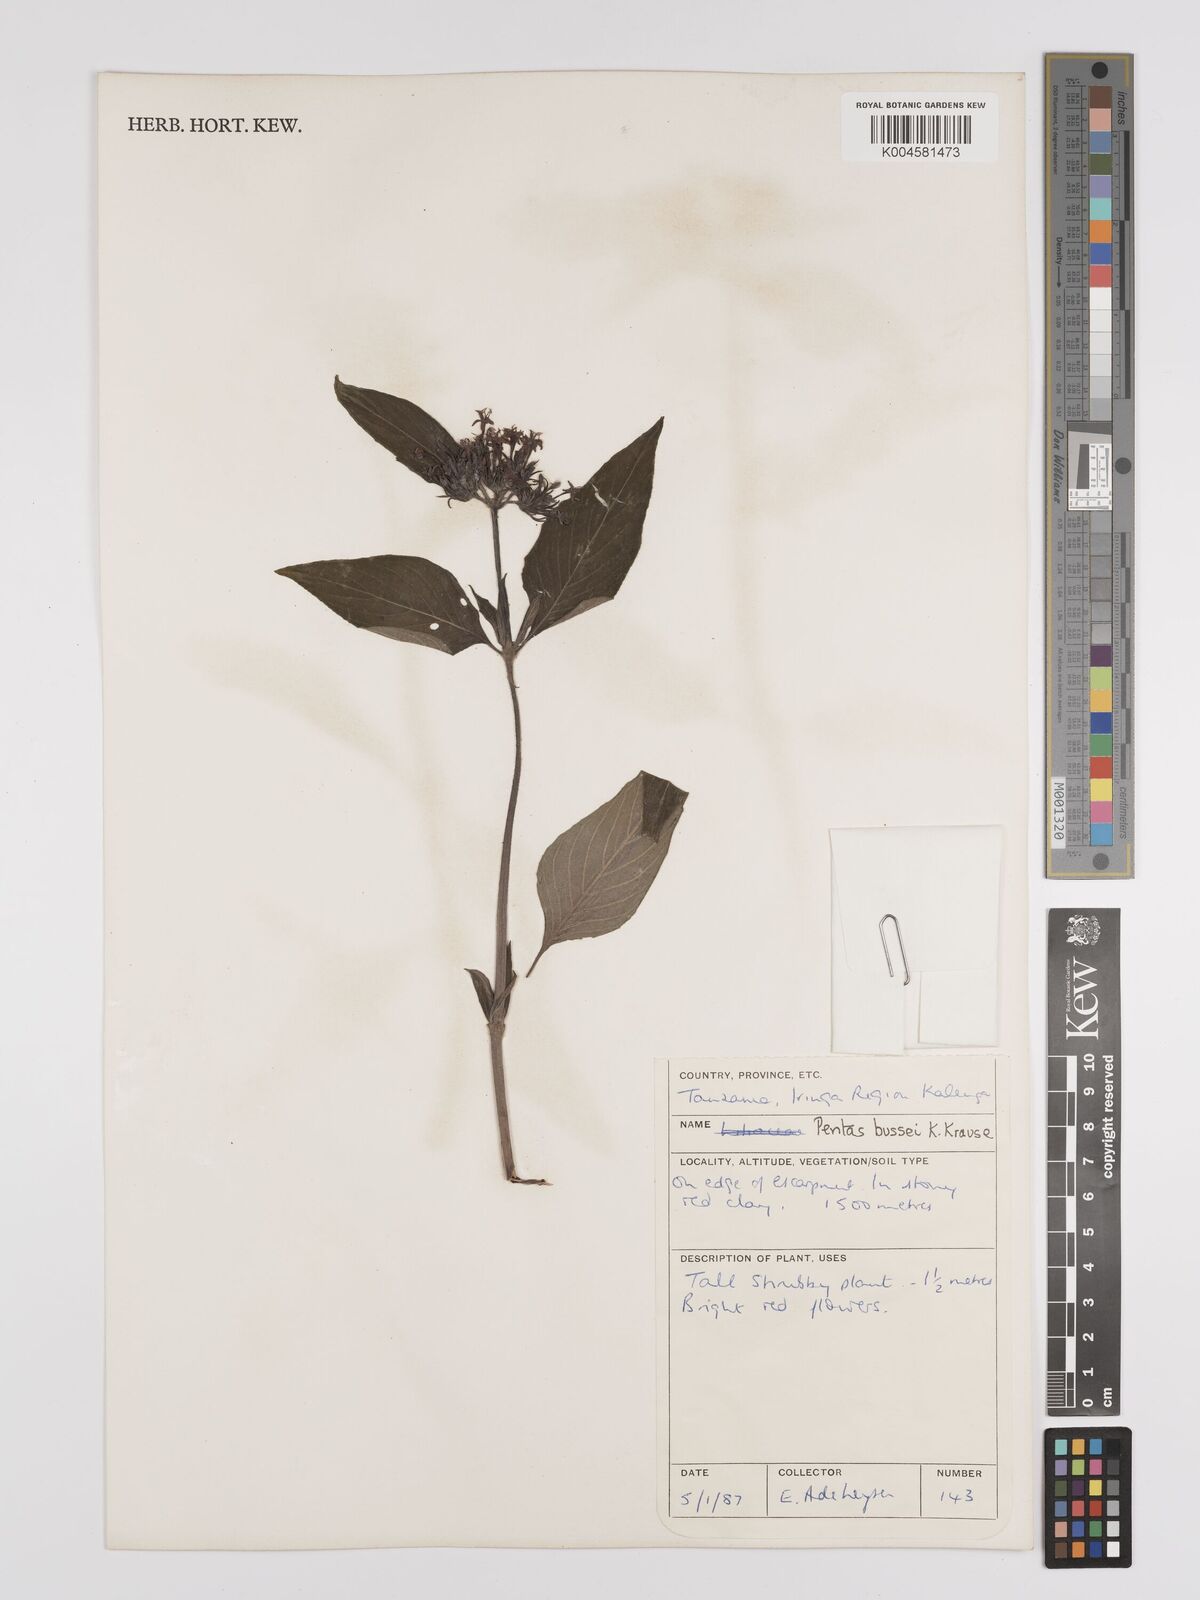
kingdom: Plantae
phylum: Tracheophyta
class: Magnoliopsida
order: Gentianales
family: Rubiaceae
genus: Rhodopentas
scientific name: Rhodopentas bussei
